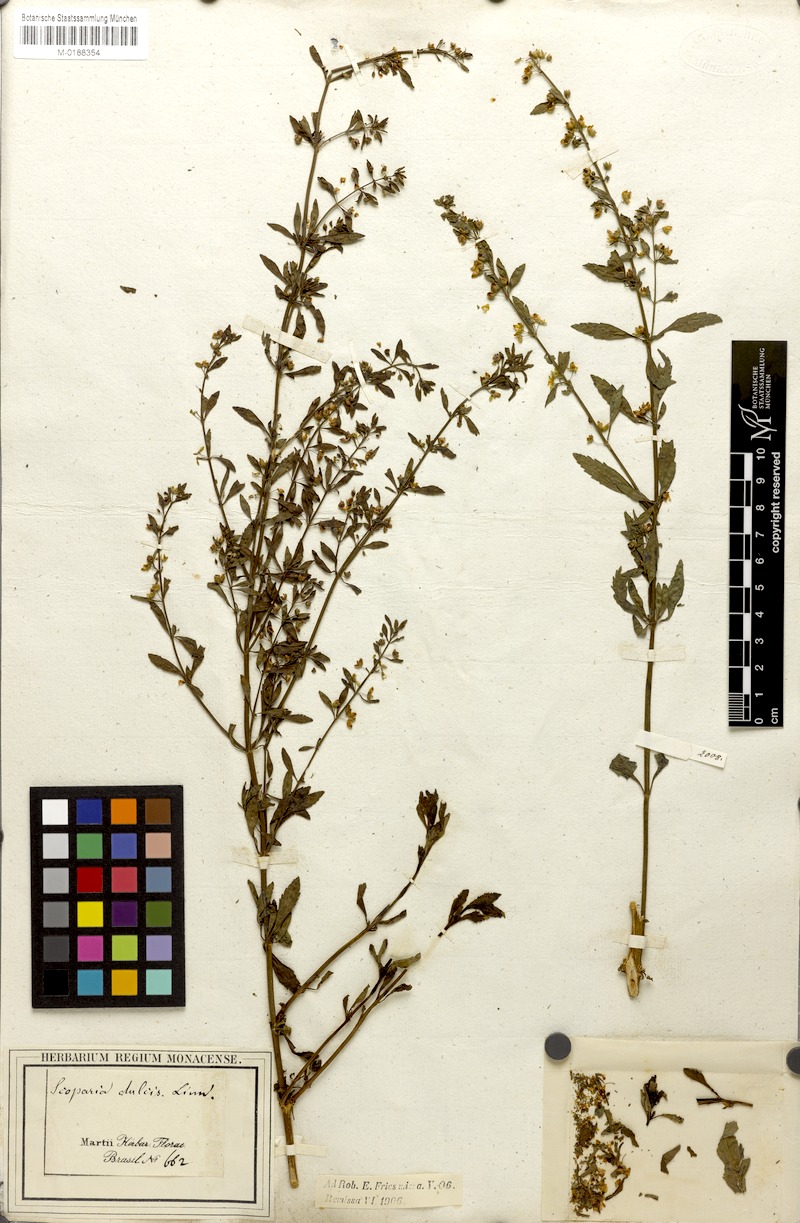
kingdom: Plantae
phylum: Tracheophyta
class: Magnoliopsida
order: Lamiales
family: Plantaginaceae
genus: Scoparia
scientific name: Scoparia dulcis
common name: Scoparia-weed
